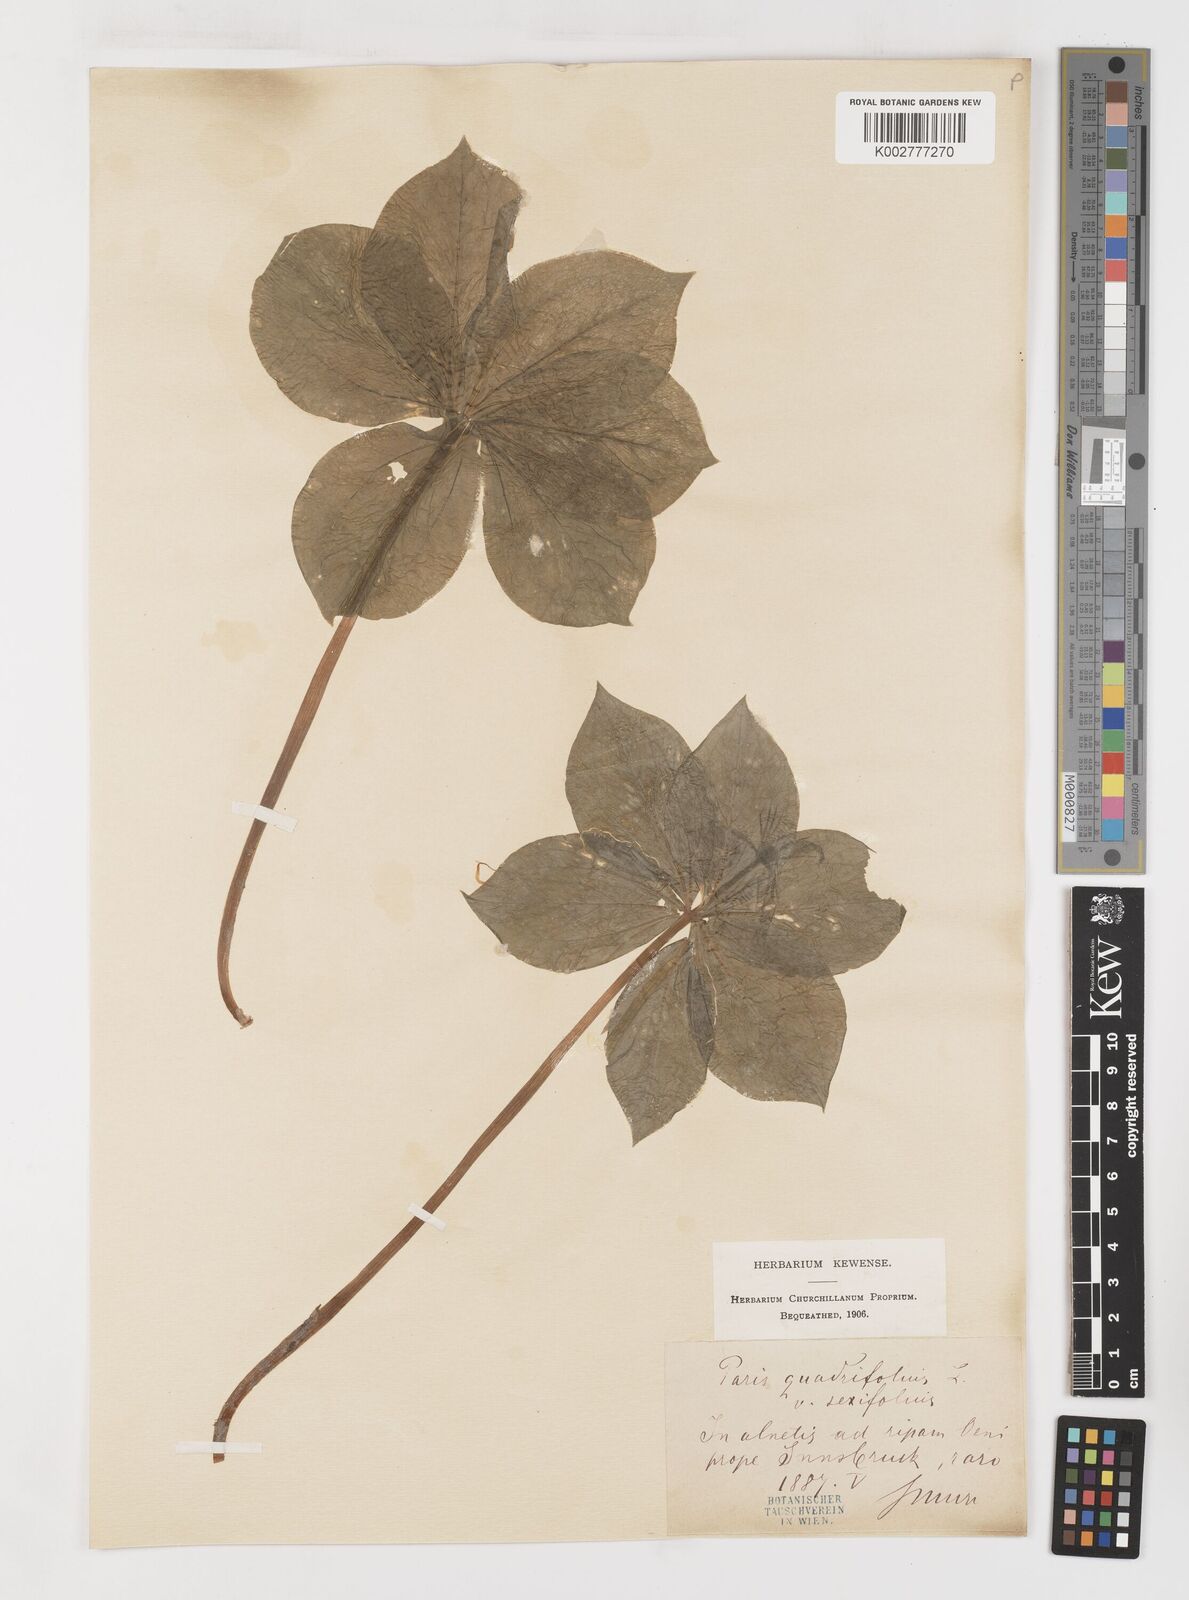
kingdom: Plantae
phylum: Tracheophyta
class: Liliopsida
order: Liliales
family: Melanthiaceae
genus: Paris
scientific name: Paris quadrifolia
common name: Herb-paris
